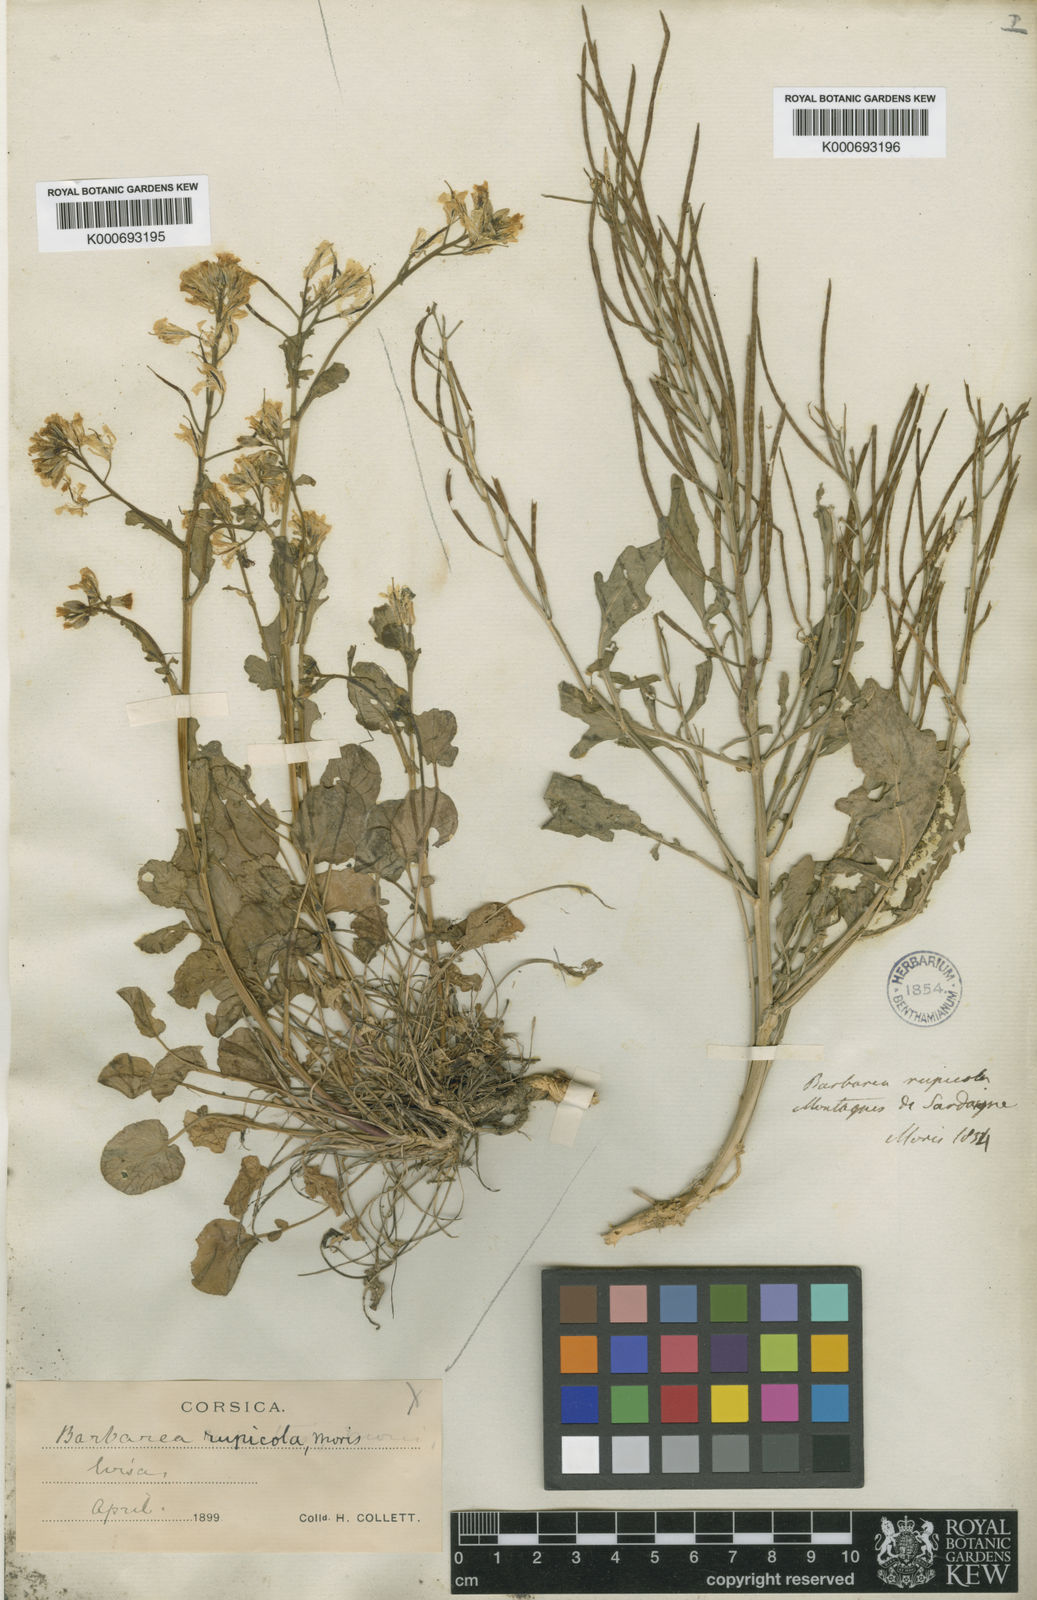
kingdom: Plantae
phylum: Tracheophyta
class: Magnoliopsida
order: Brassicales
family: Brassicaceae
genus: Barbarea
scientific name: Barbarea rupicola
